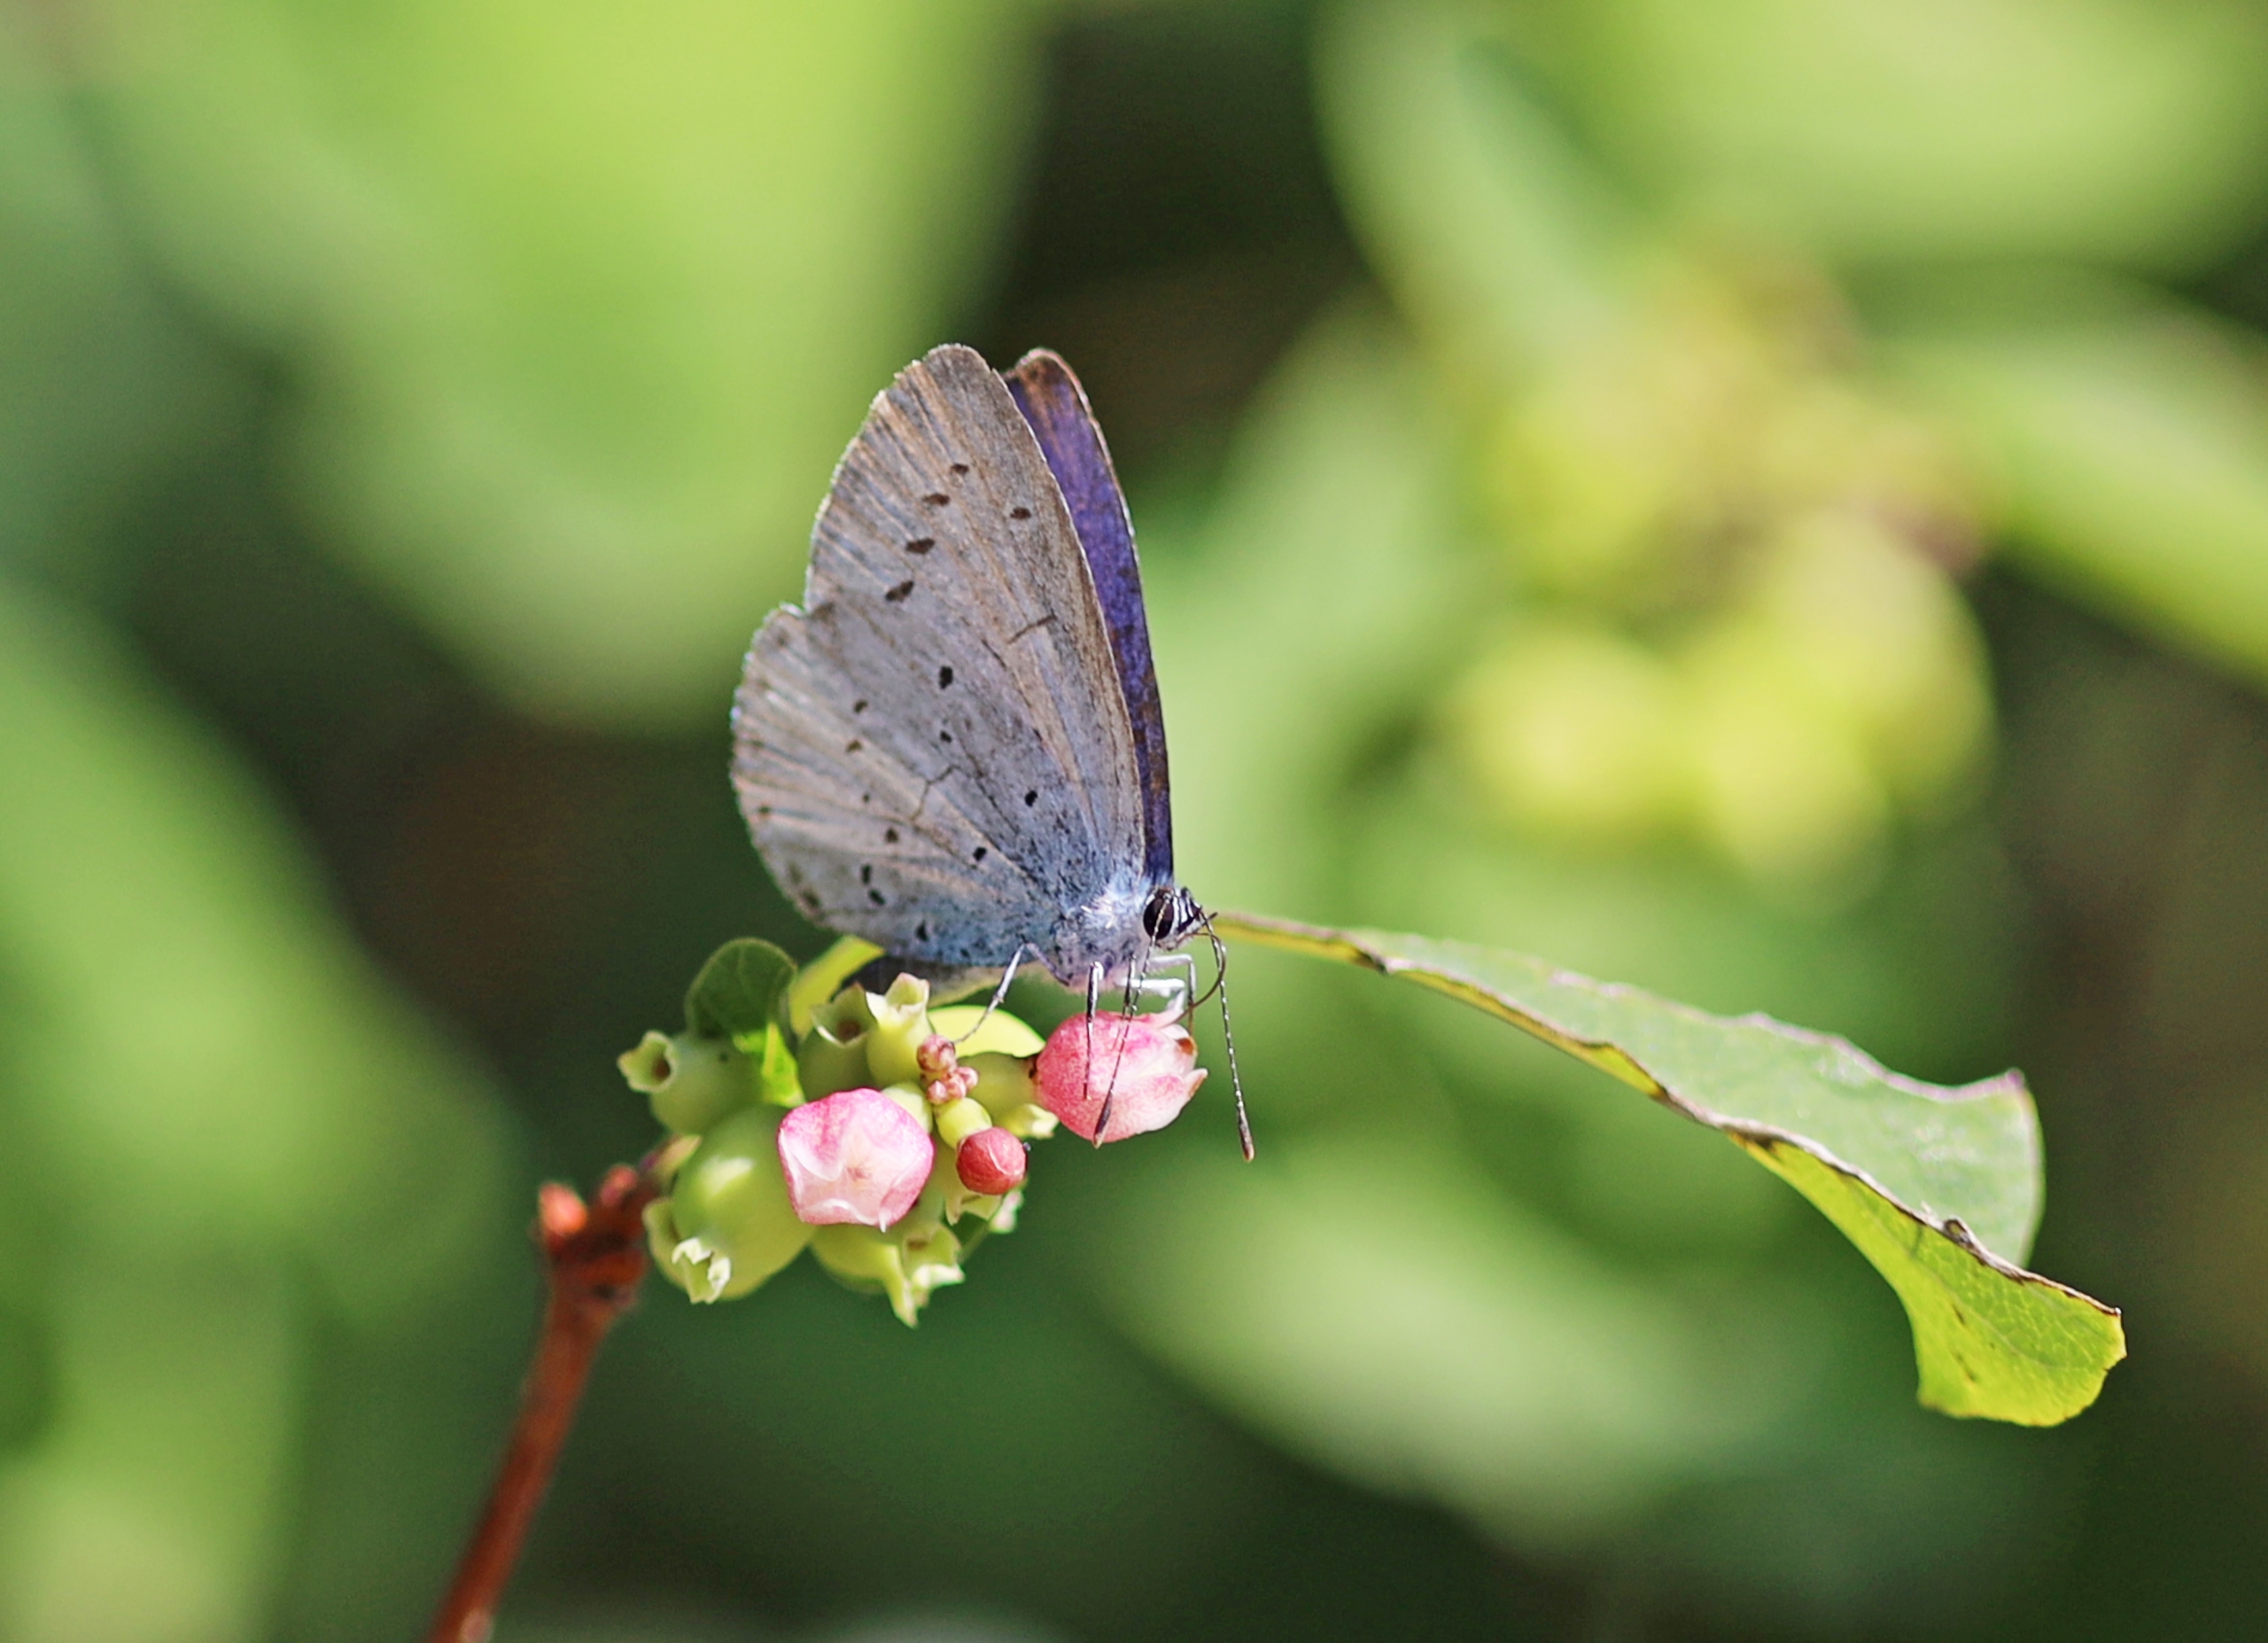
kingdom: Animalia
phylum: Arthropoda
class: Insecta
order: Lepidoptera
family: Lycaenidae
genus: Celastrina
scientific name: Celastrina argiolus
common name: Skovblåfugl
